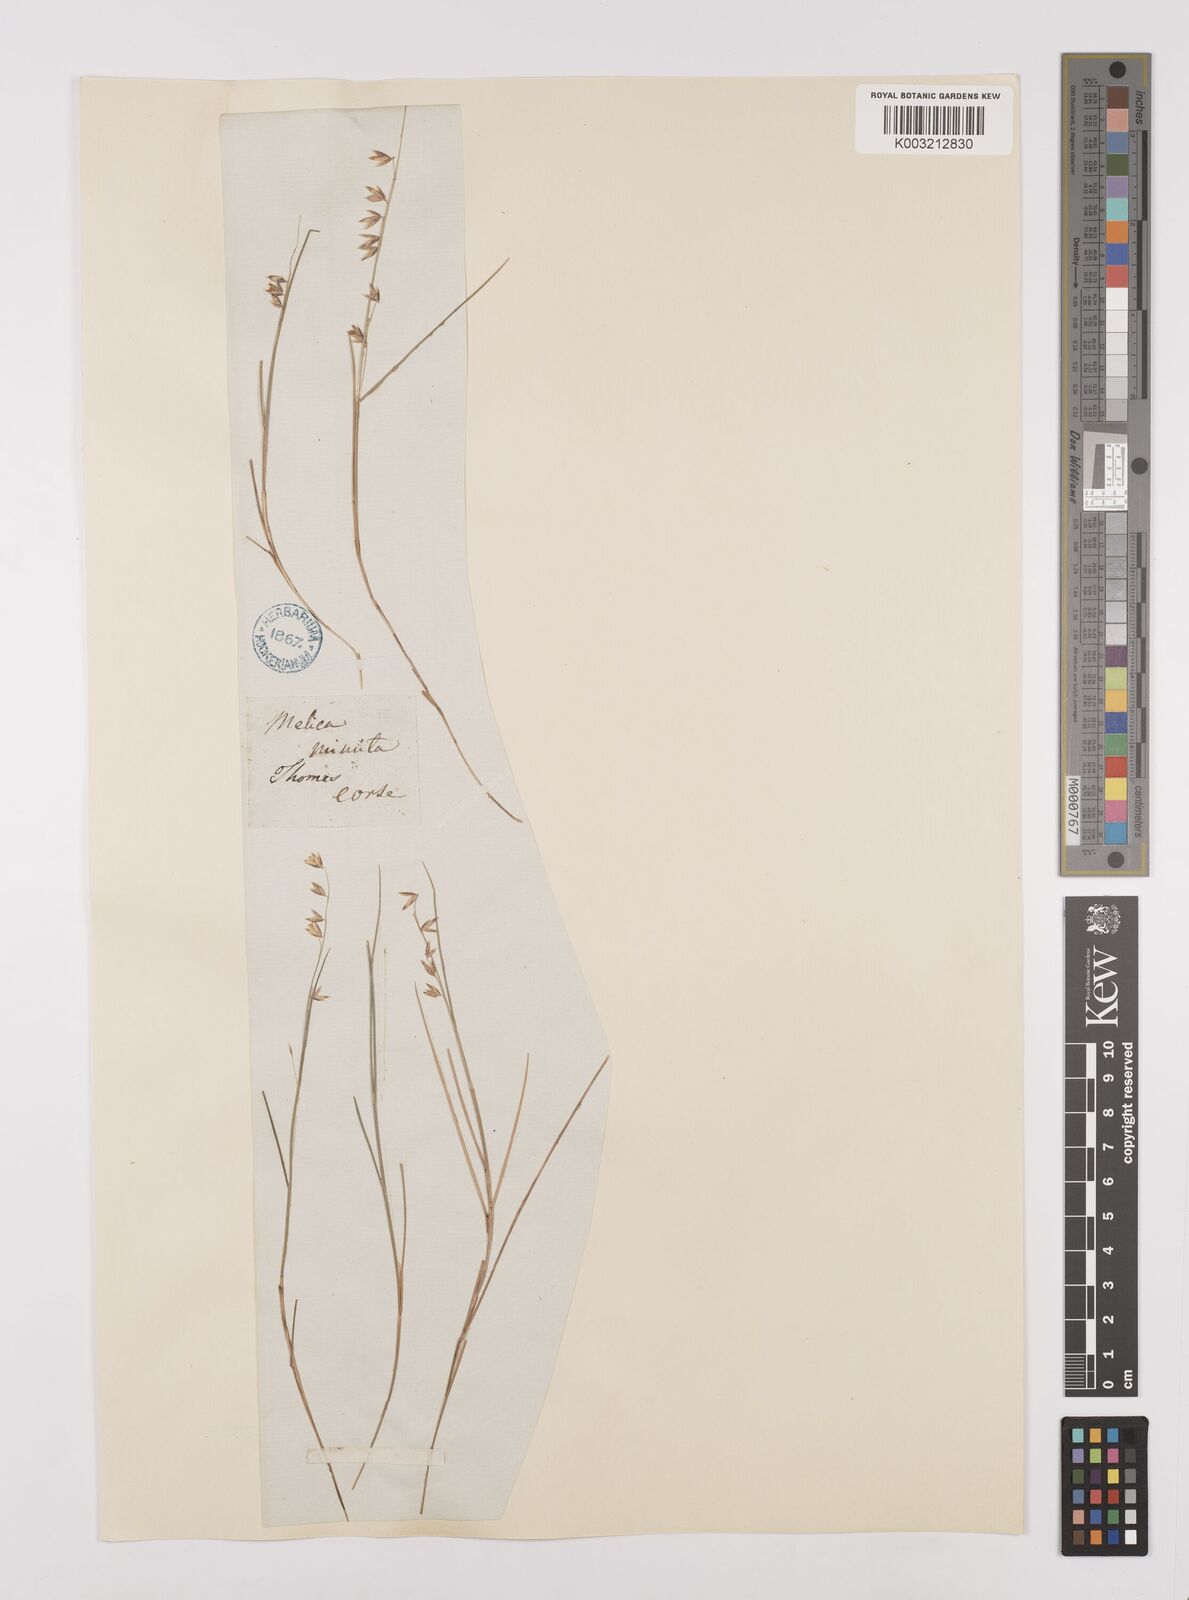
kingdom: Plantae
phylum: Tracheophyta
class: Liliopsida
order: Poales
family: Poaceae
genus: Melica
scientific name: Melica minuta
